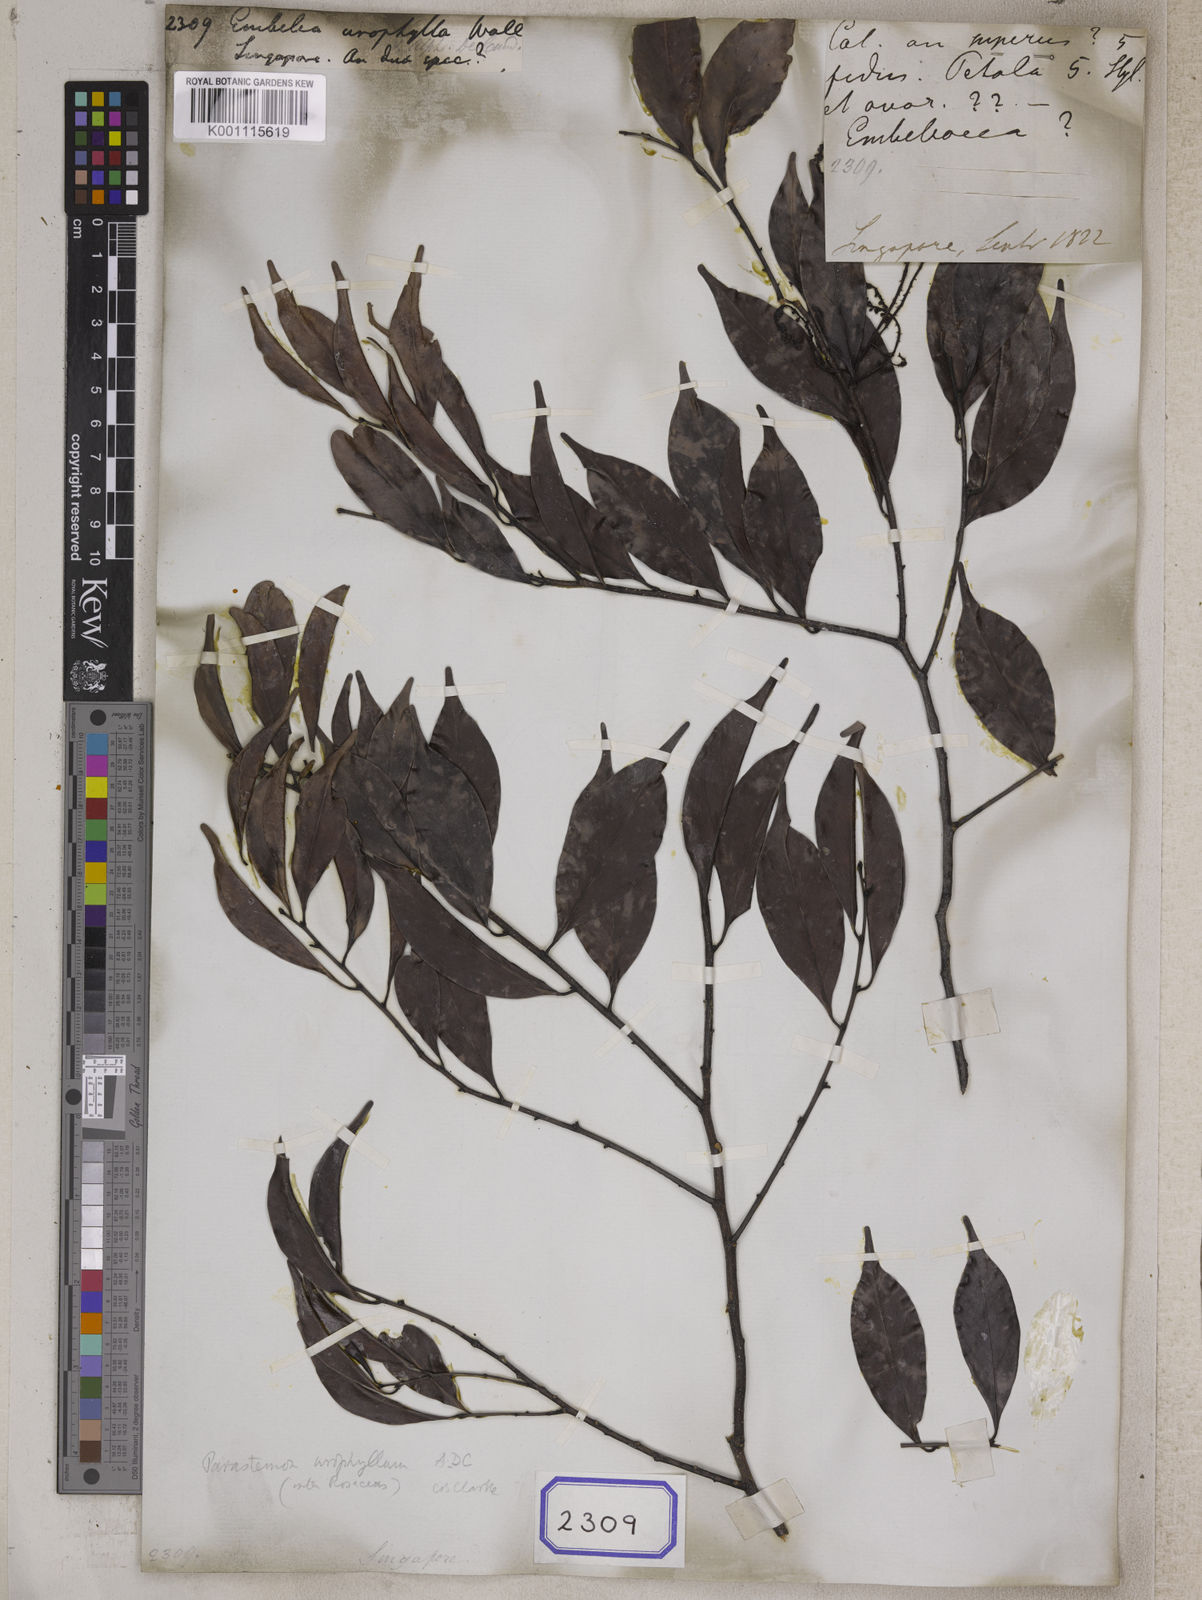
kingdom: Plantae
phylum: Tracheophyta
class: Magnoliopsida
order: Ericales
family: Primulaceae
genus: Embelia
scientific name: Embelia
